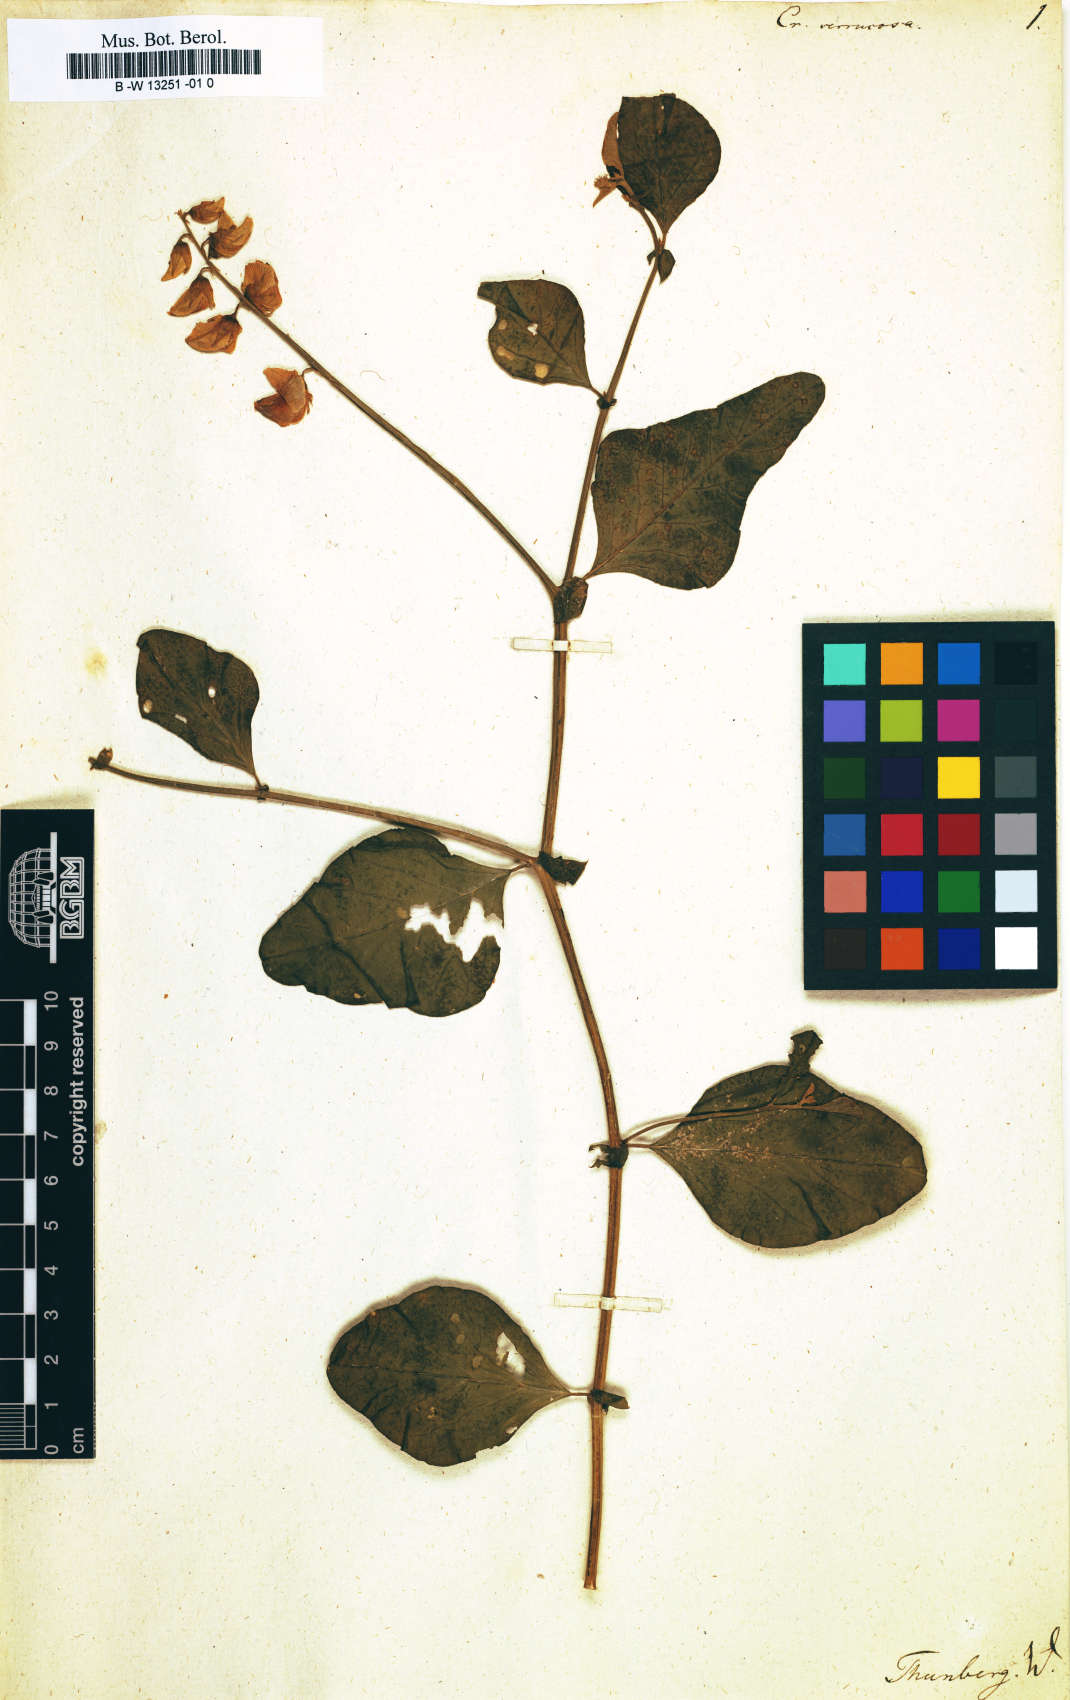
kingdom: Plantae
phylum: Tracheophyta
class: Magnoliopsida
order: Fabales
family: Fabaceae
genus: Crotalaria
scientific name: Crotalaria verrucosa
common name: Blue rattlesnake
